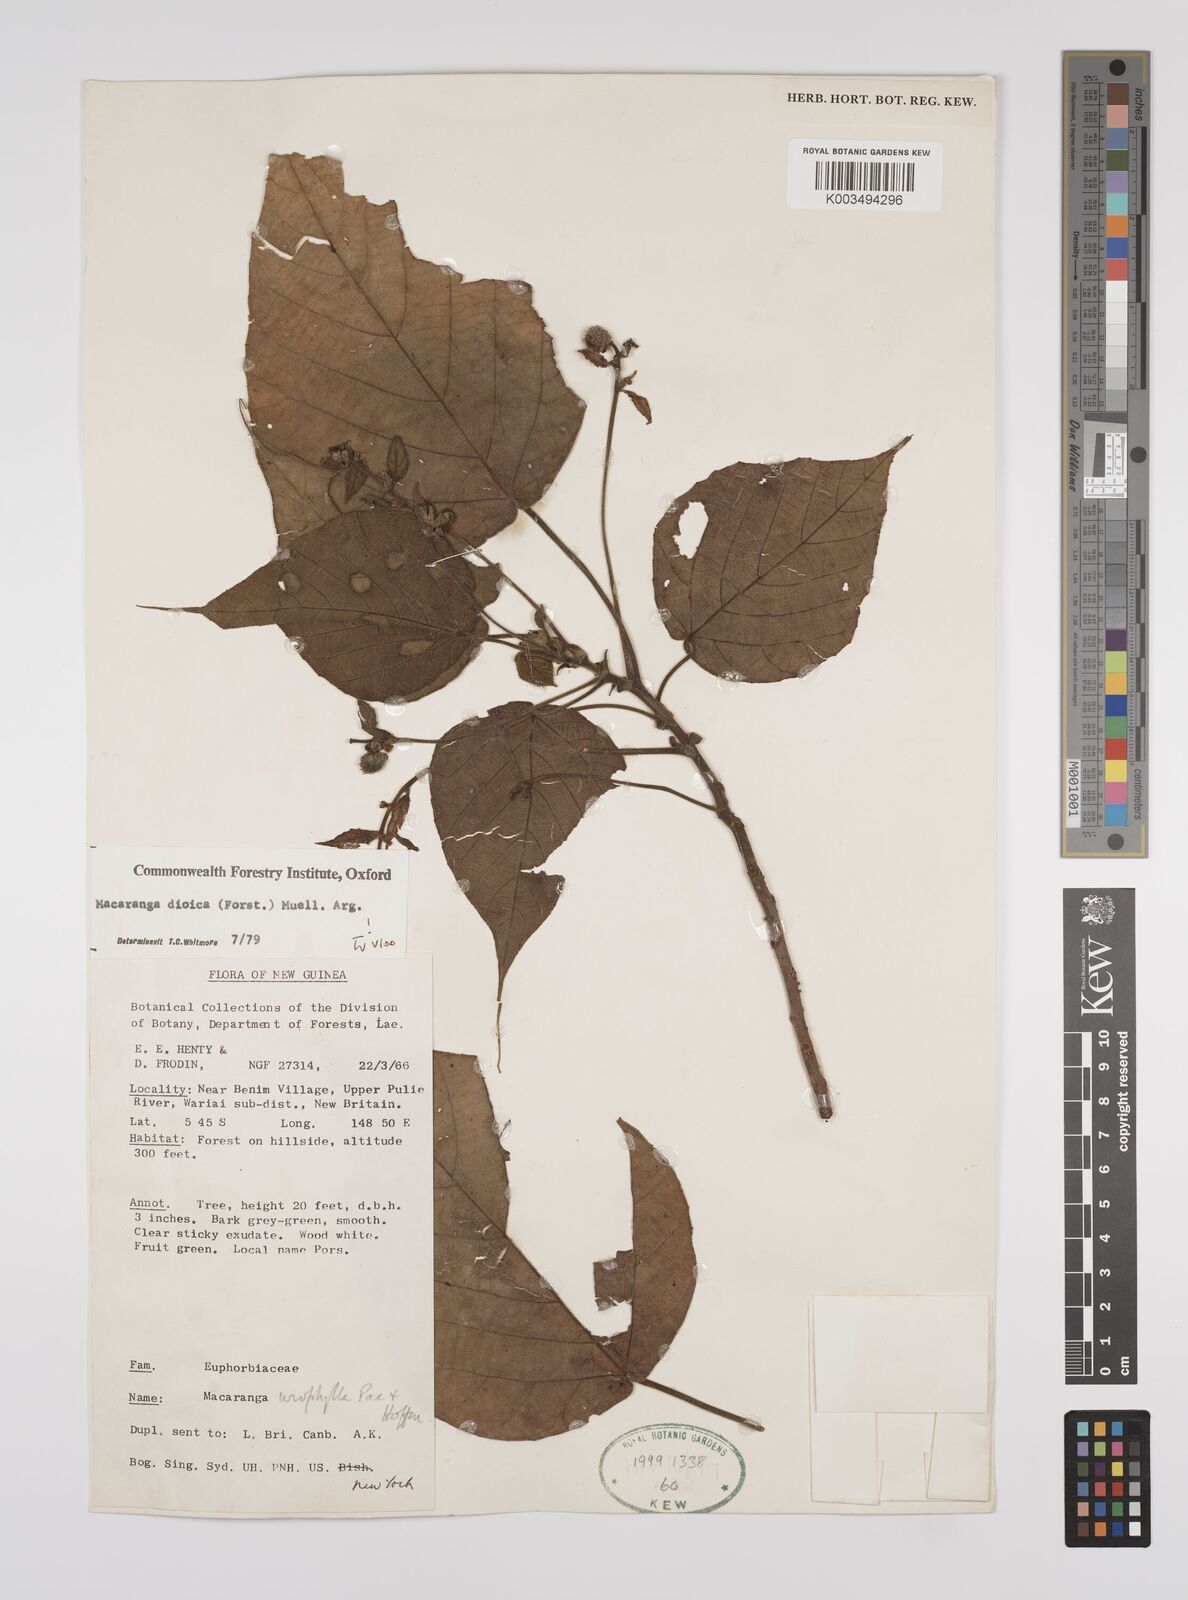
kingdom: Plantae
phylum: Tracheophyta
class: Magnoliopsida
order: Malpighiales
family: Euphorbiaceae
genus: Macaranga
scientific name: Macaranga dioica
